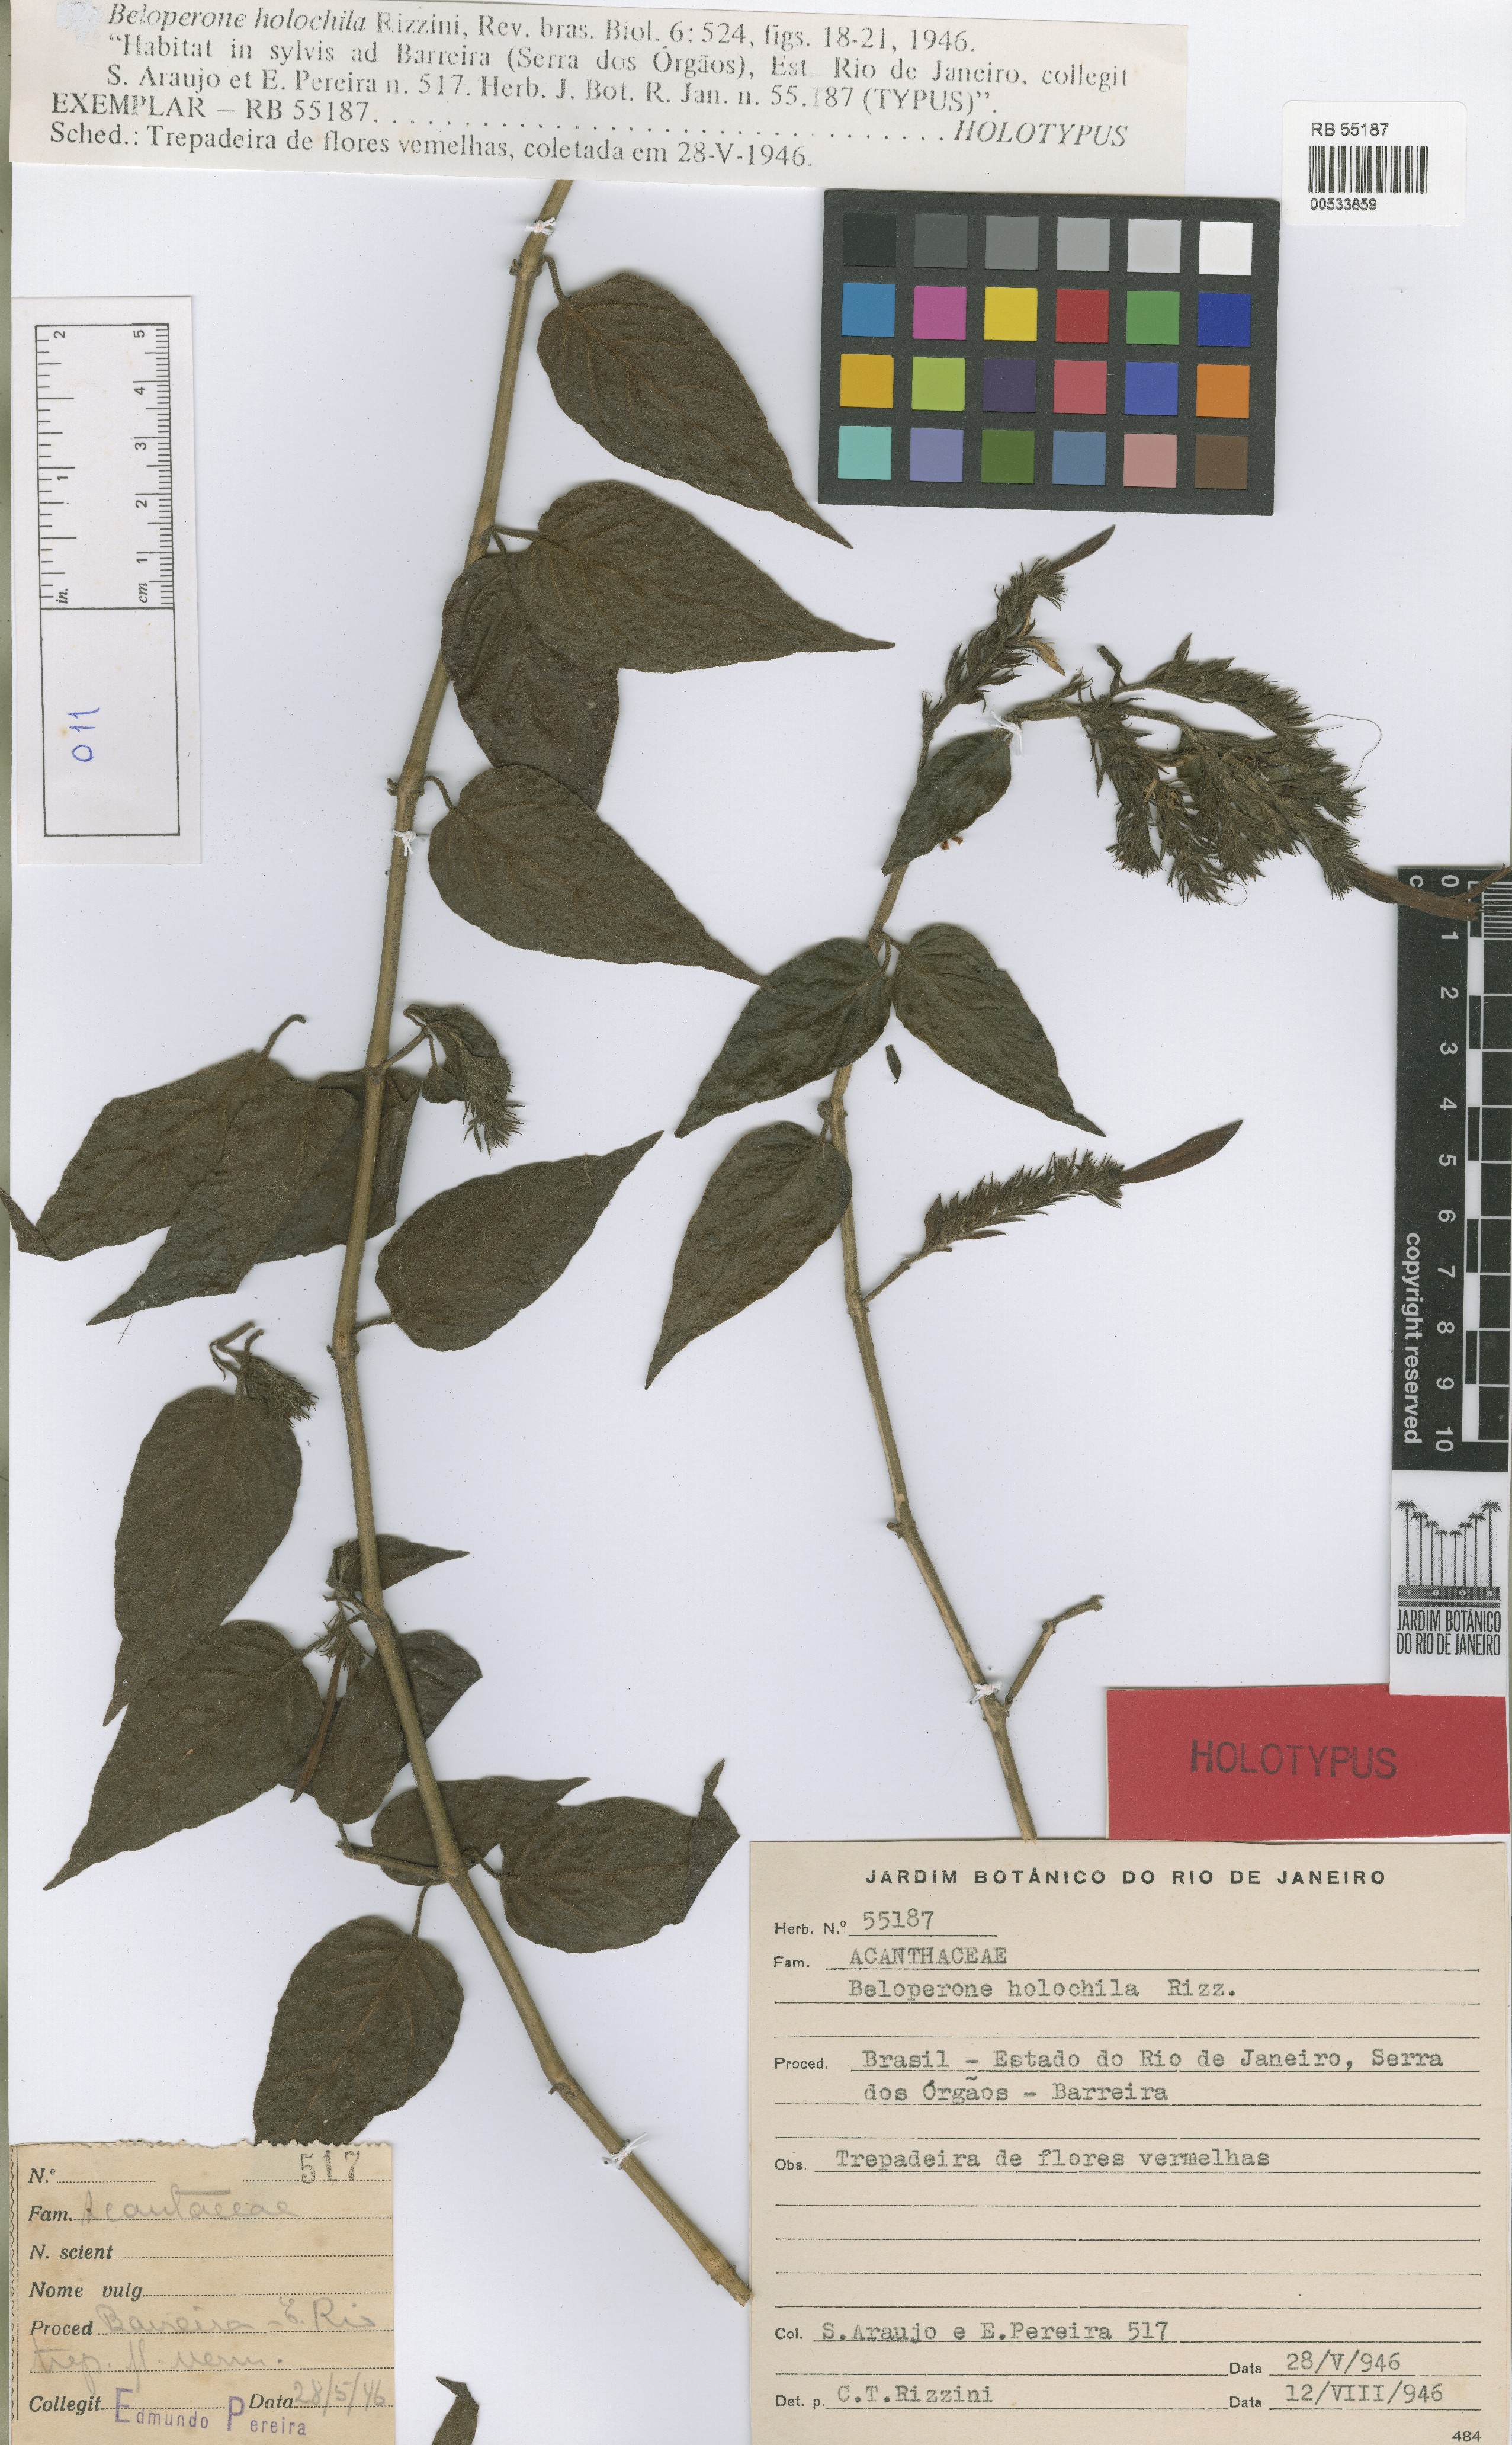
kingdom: Plantae
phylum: Tracheophyta
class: Magnoliopsida
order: Lamiales
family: Acanthaceae
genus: Justicia
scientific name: Justicia monticola
